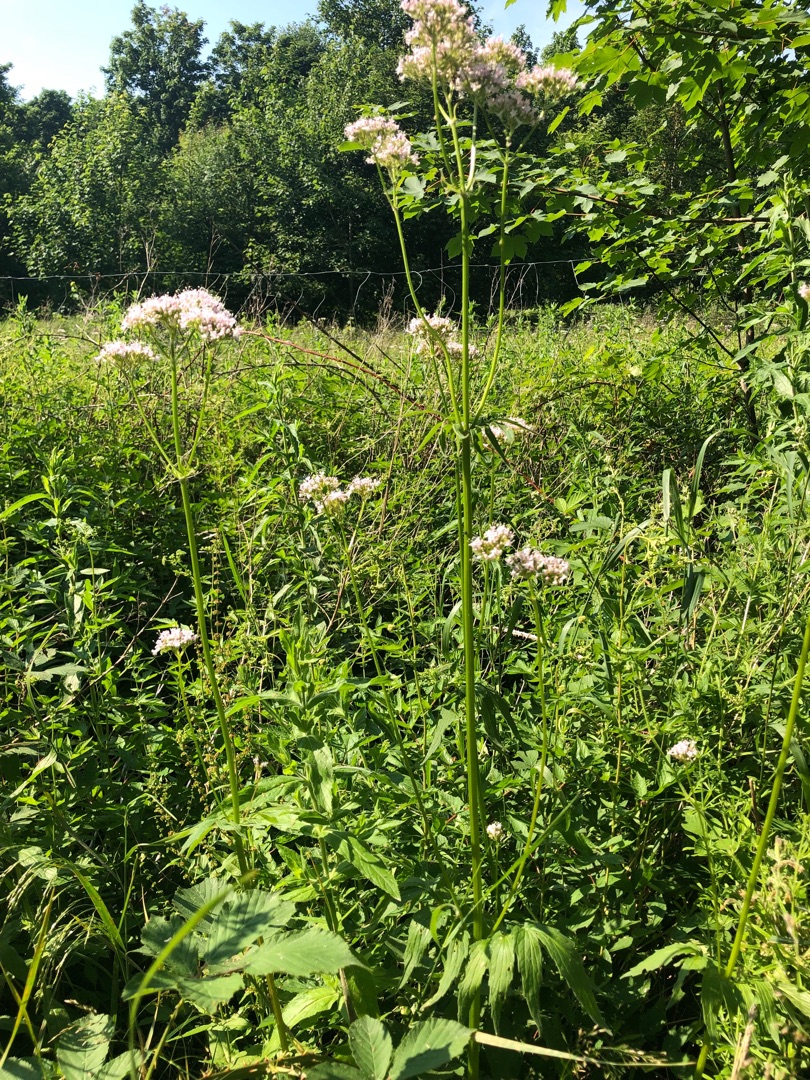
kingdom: Plantae
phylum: Tracheophyta
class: Magnoliopsida
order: Dipsacales
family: Caprifoliaceae
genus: Valeriana
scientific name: Valeriana sambucifolia
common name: Hyldebladet baldrian
